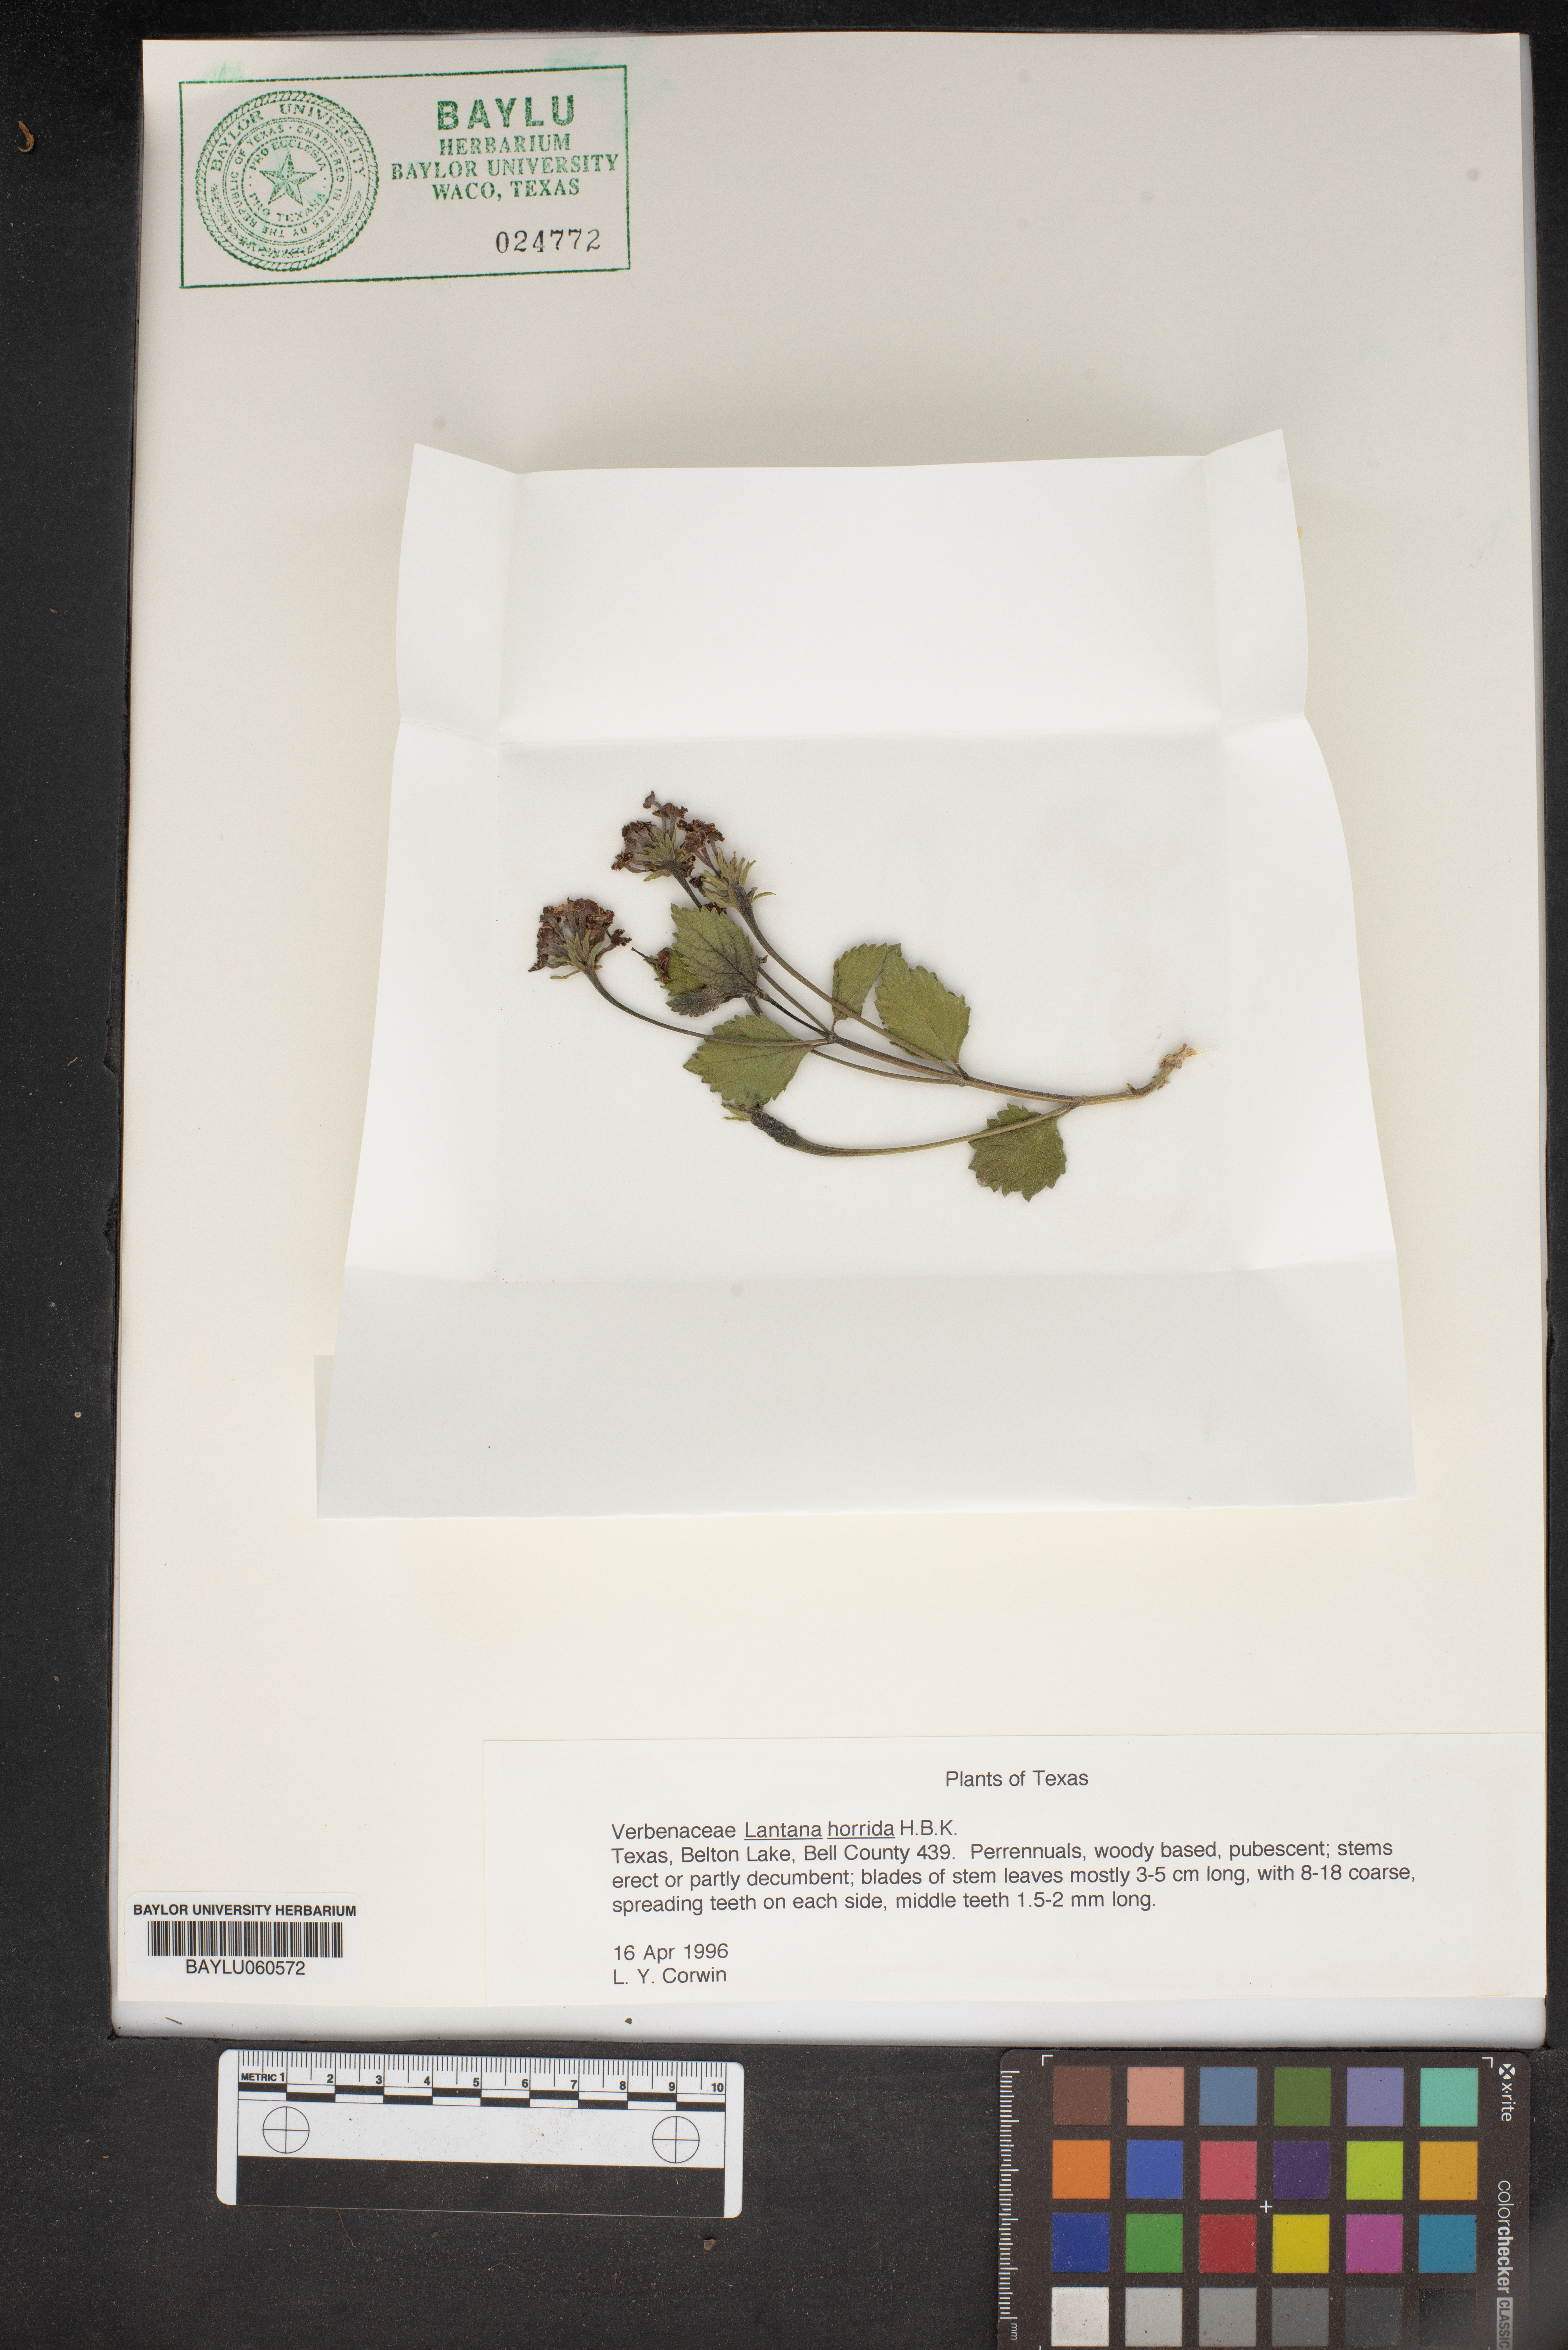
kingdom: Plantae
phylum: Tracheophyta
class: Magnoliopsida
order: Lamiales
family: Verbenaceae
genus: Lantana
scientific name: Lantana horrida
